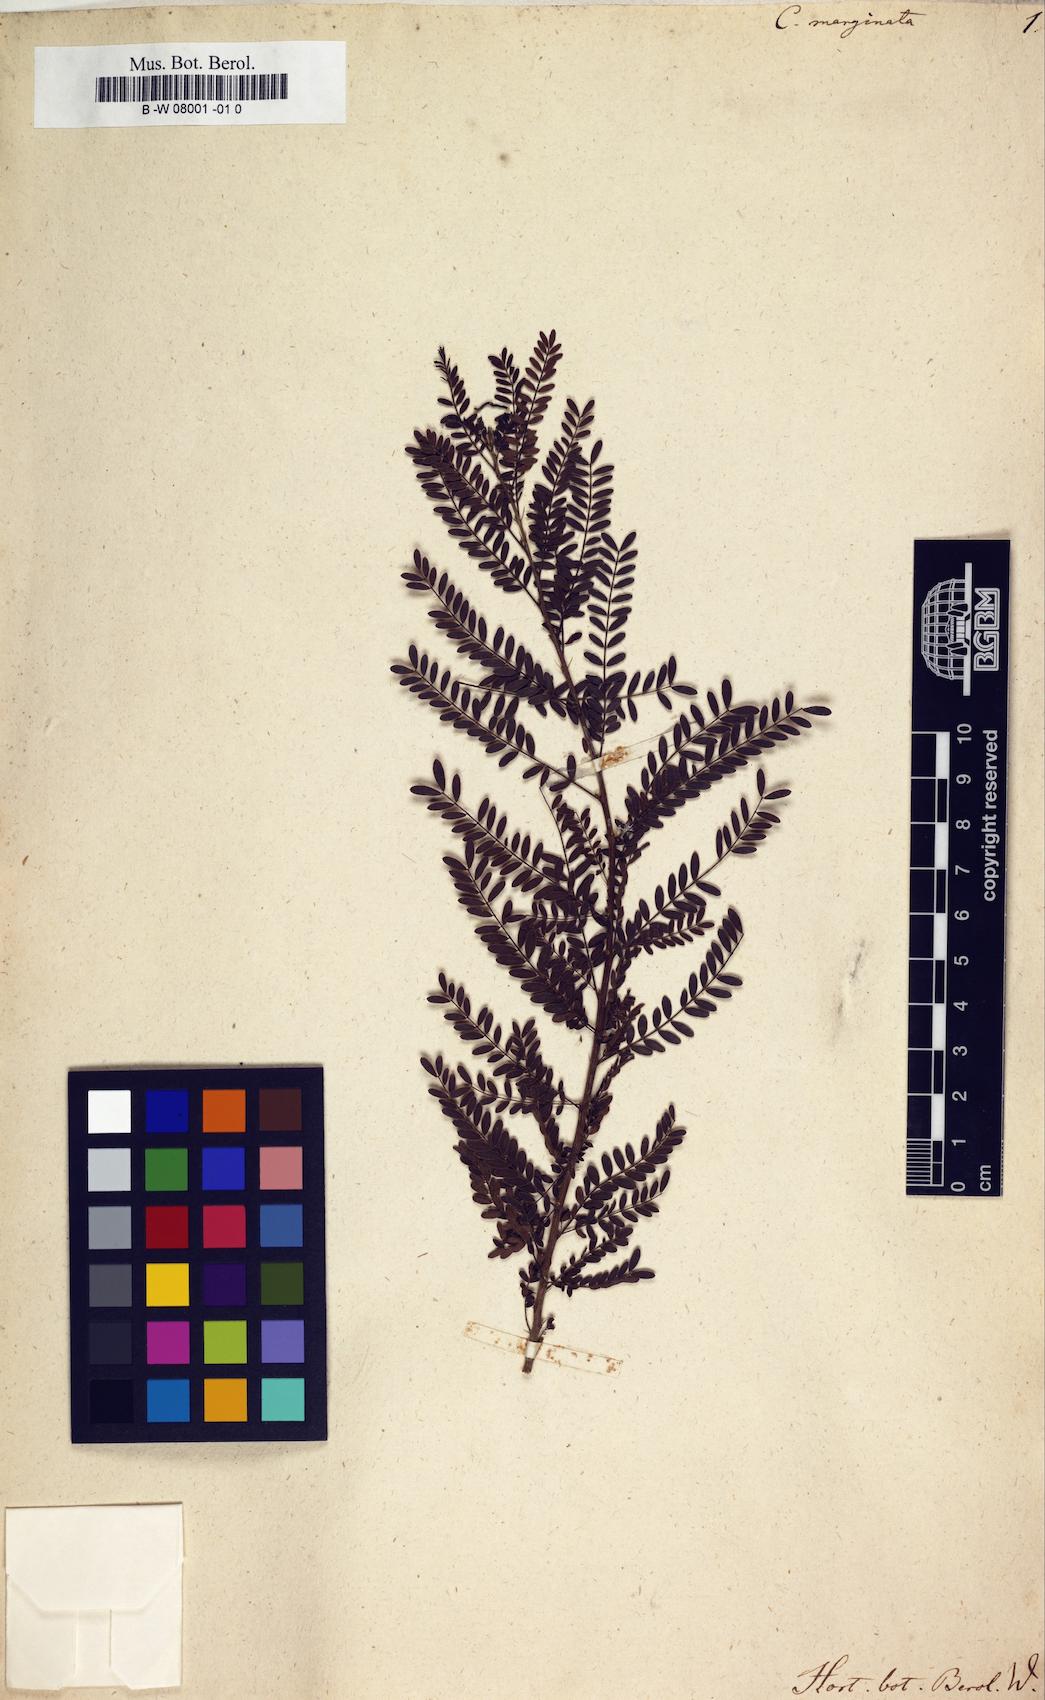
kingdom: Plantae
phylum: Tracheophyta
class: Magnoliopsida
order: Fabales
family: Fabaceae
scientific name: Fabaceae
